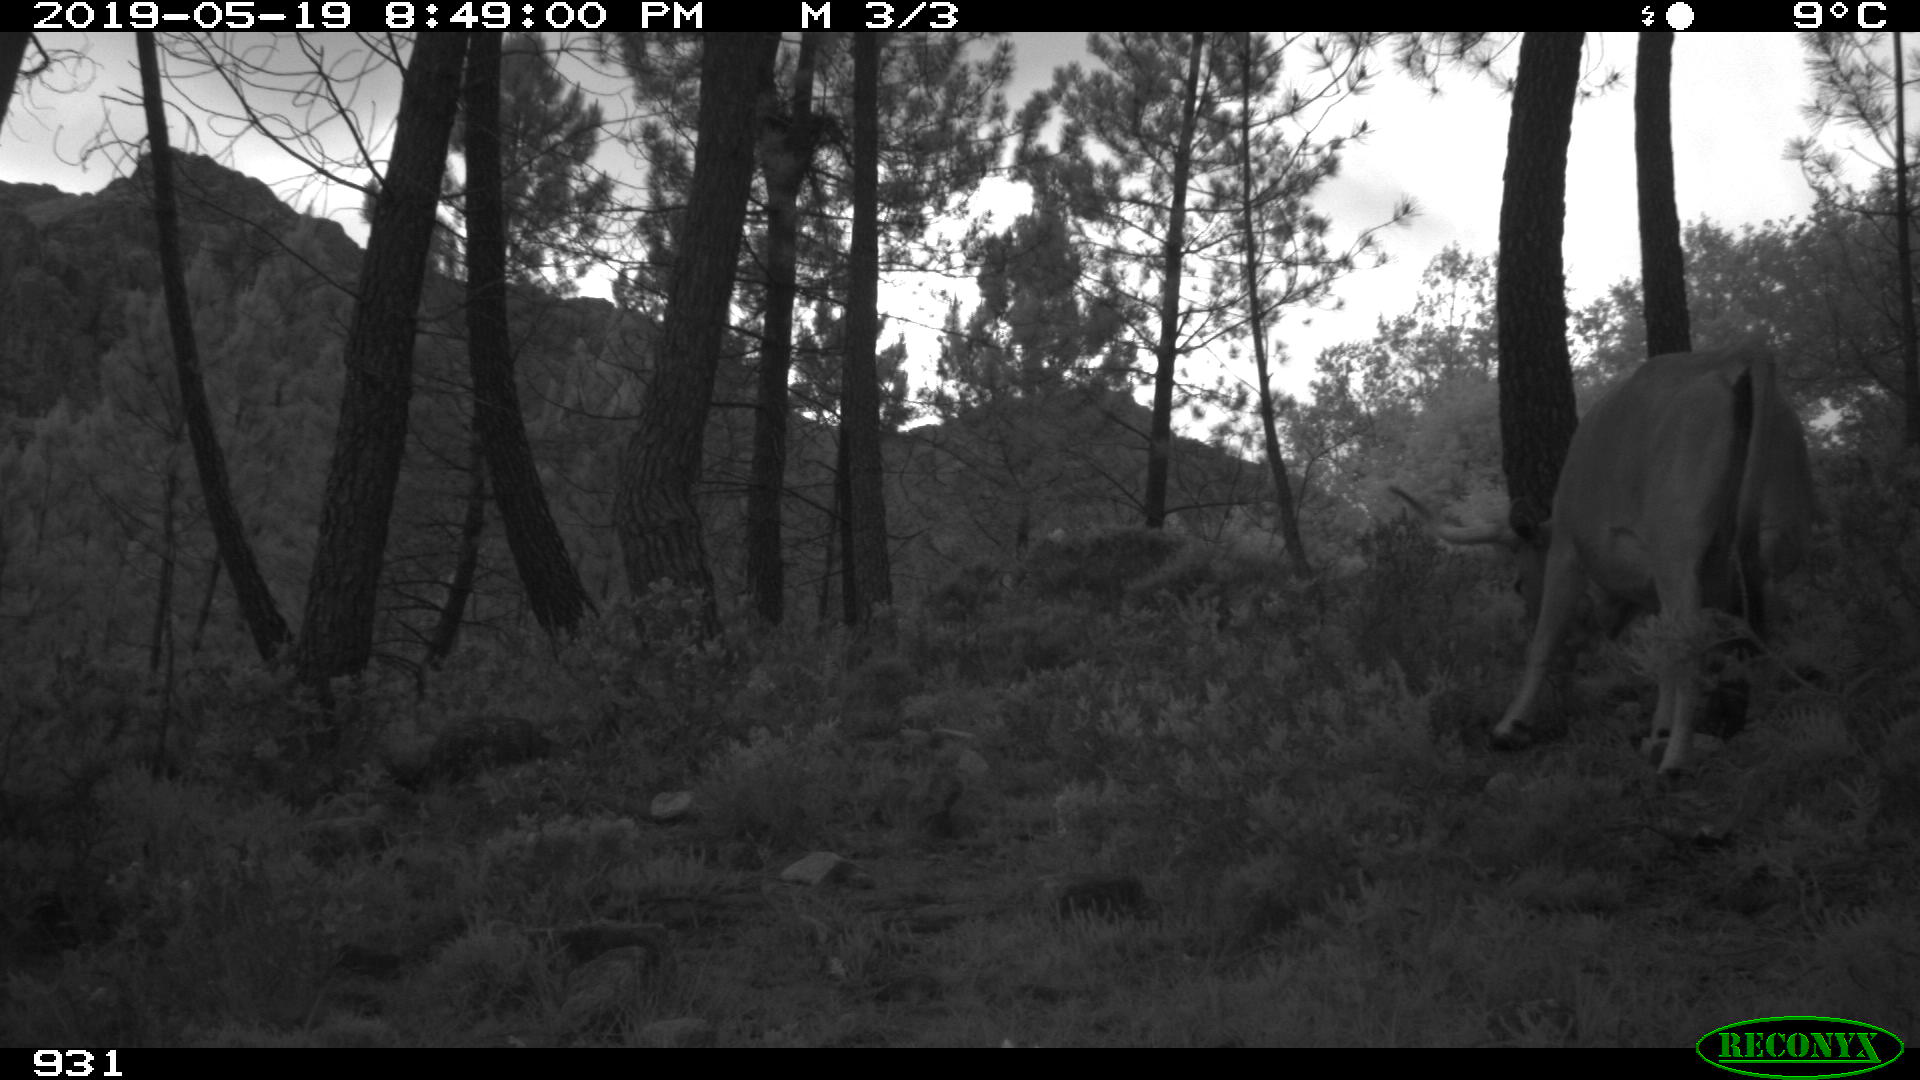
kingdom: Animalia
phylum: Chordata
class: Mammalia
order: Artiodactyla
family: Bovidae
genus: Bos
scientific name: Bos taurus
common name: Domesticated cattle
